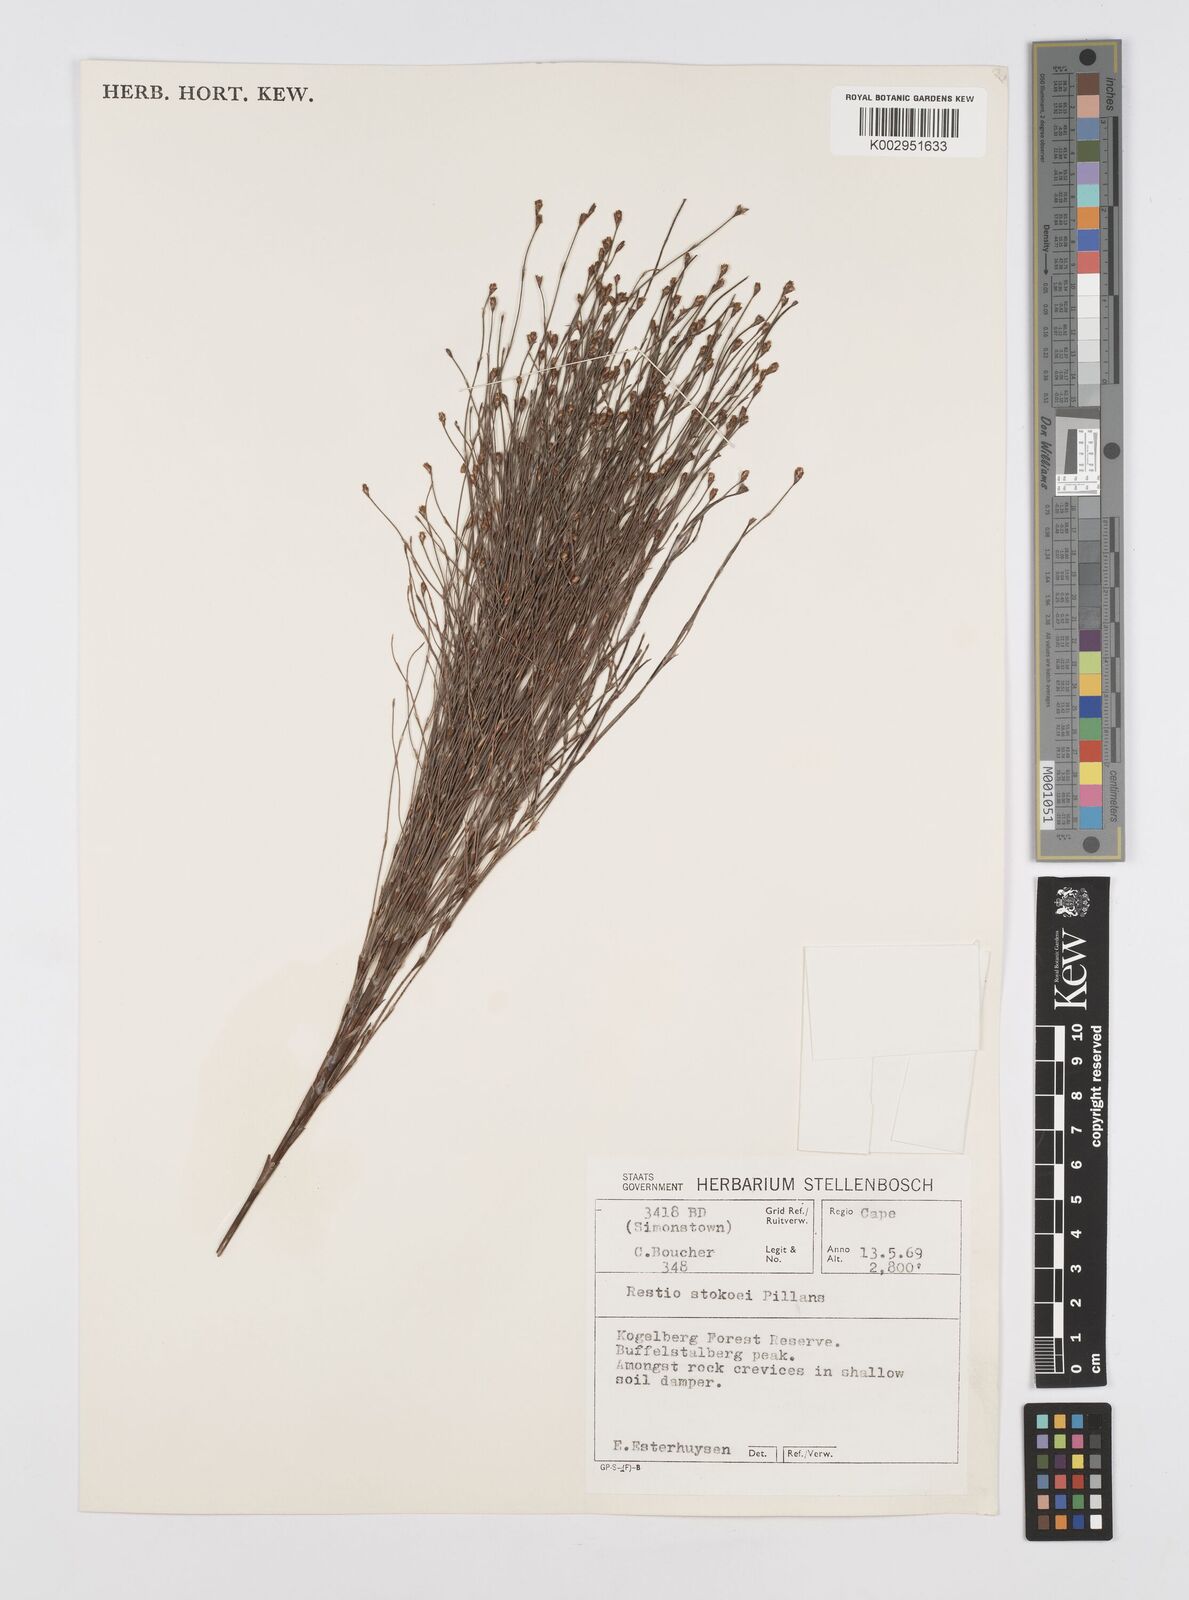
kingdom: Plantae
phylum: Tracheophyta
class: Liliopsida
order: Poales
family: Restionaceae
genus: Restio
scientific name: Restio stokoei
